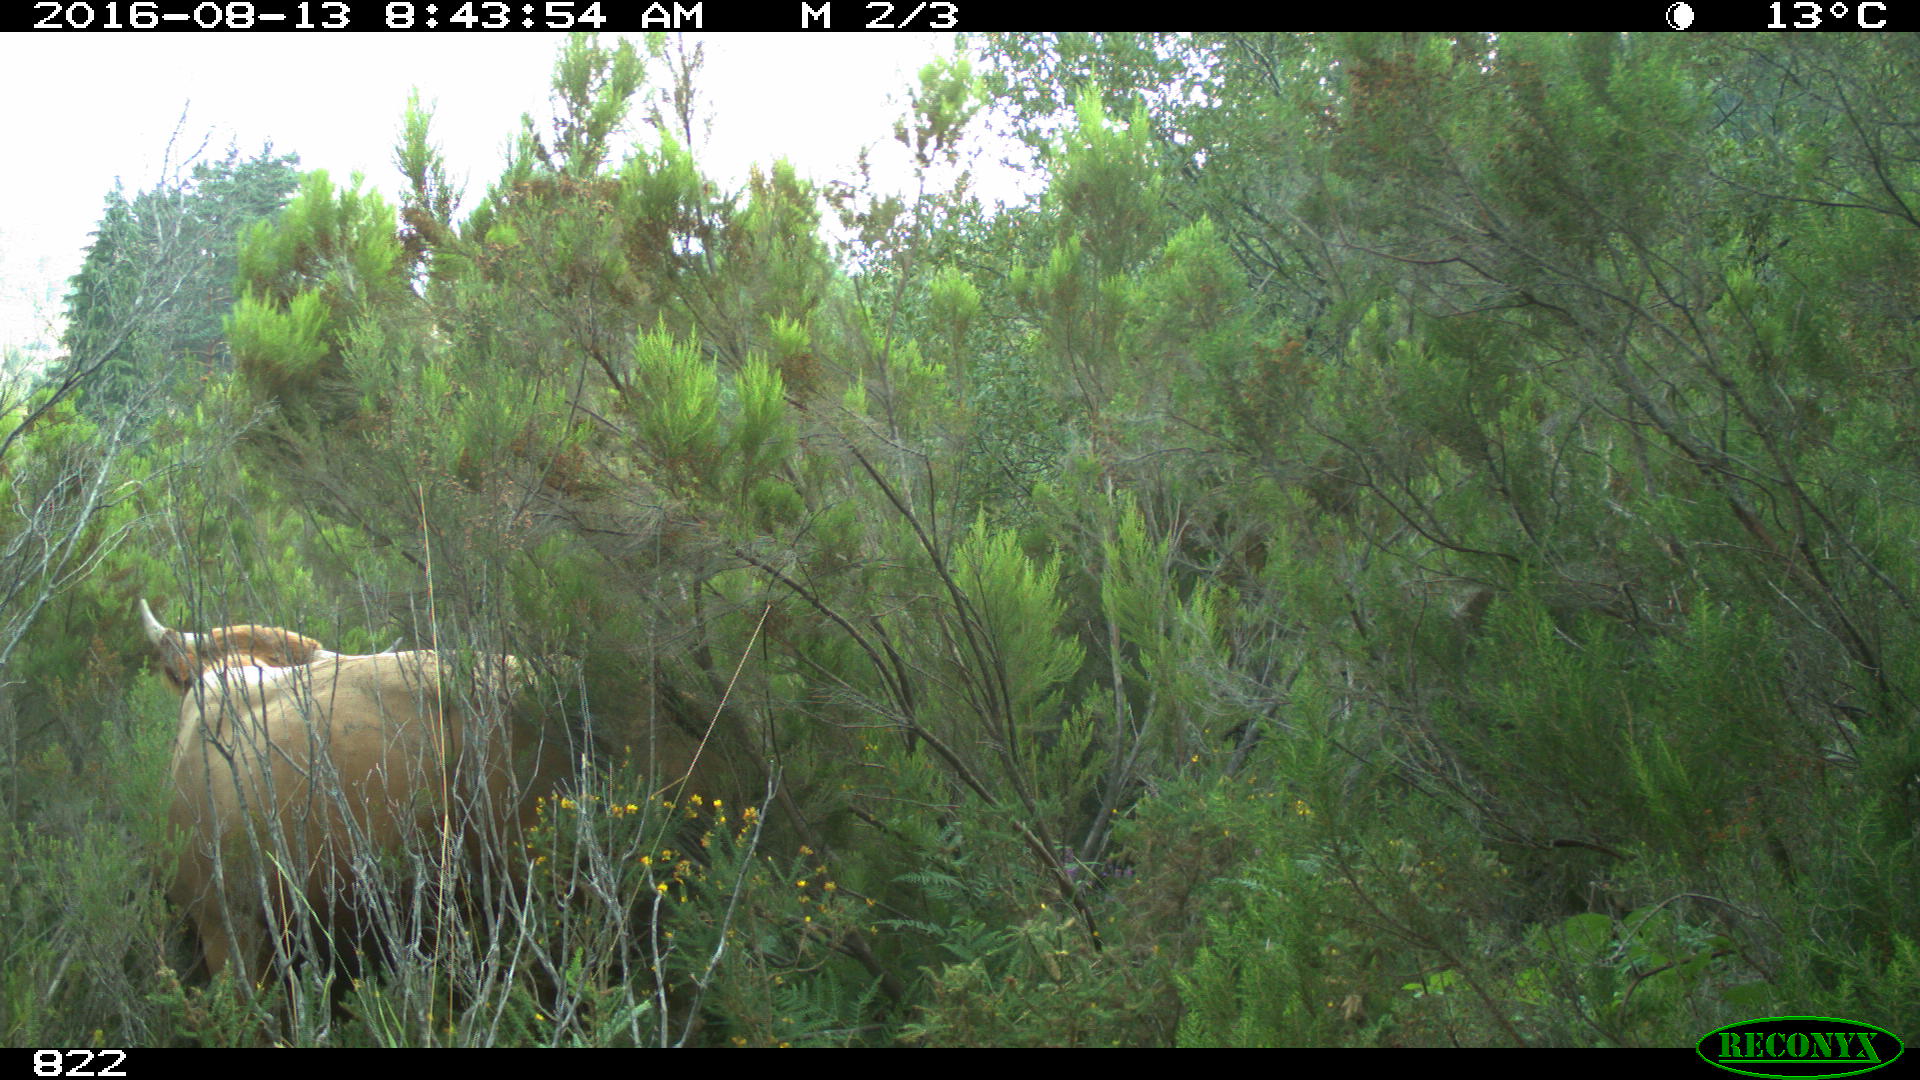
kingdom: Animalia
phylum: Chordata
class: Mammalia
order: Artiodactyla
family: Bovidae
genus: Bos
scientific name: Bos taurus
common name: Domesticated cattle
